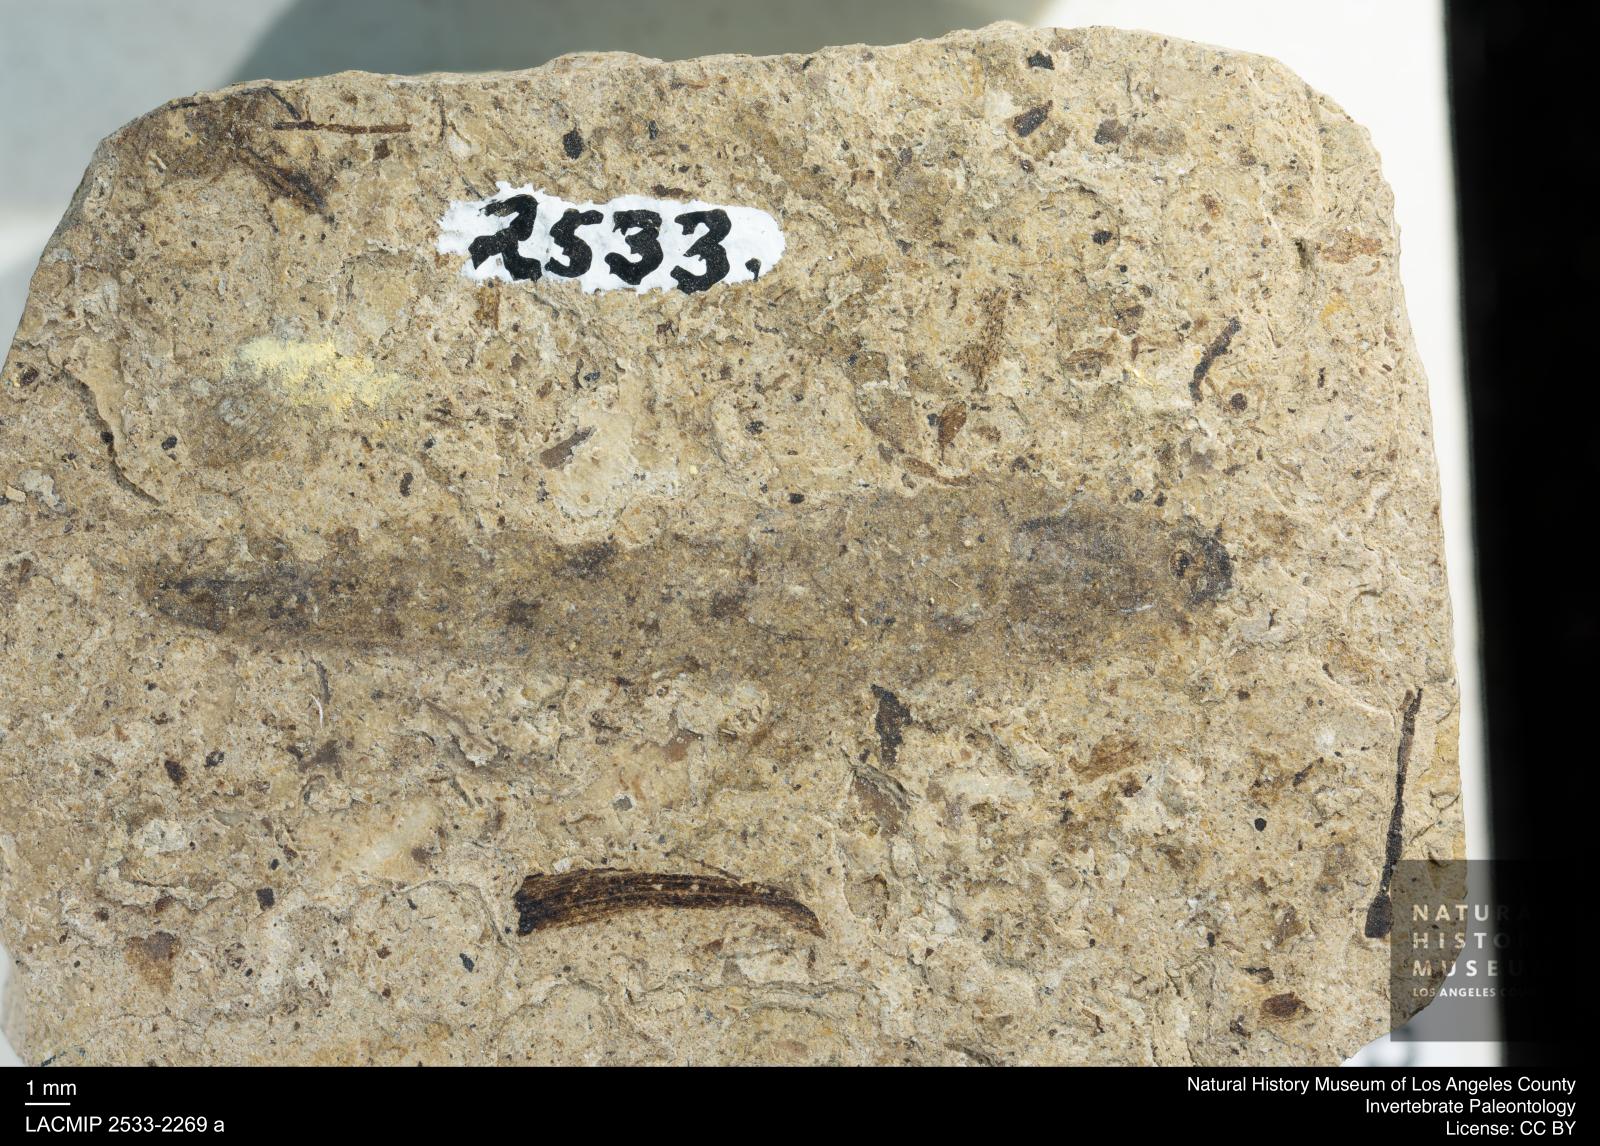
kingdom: Animalia
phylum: Arthropoda
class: Insecta
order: Diptera
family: Stratiomyidae
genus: Odontomyia
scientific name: Odontomyia
